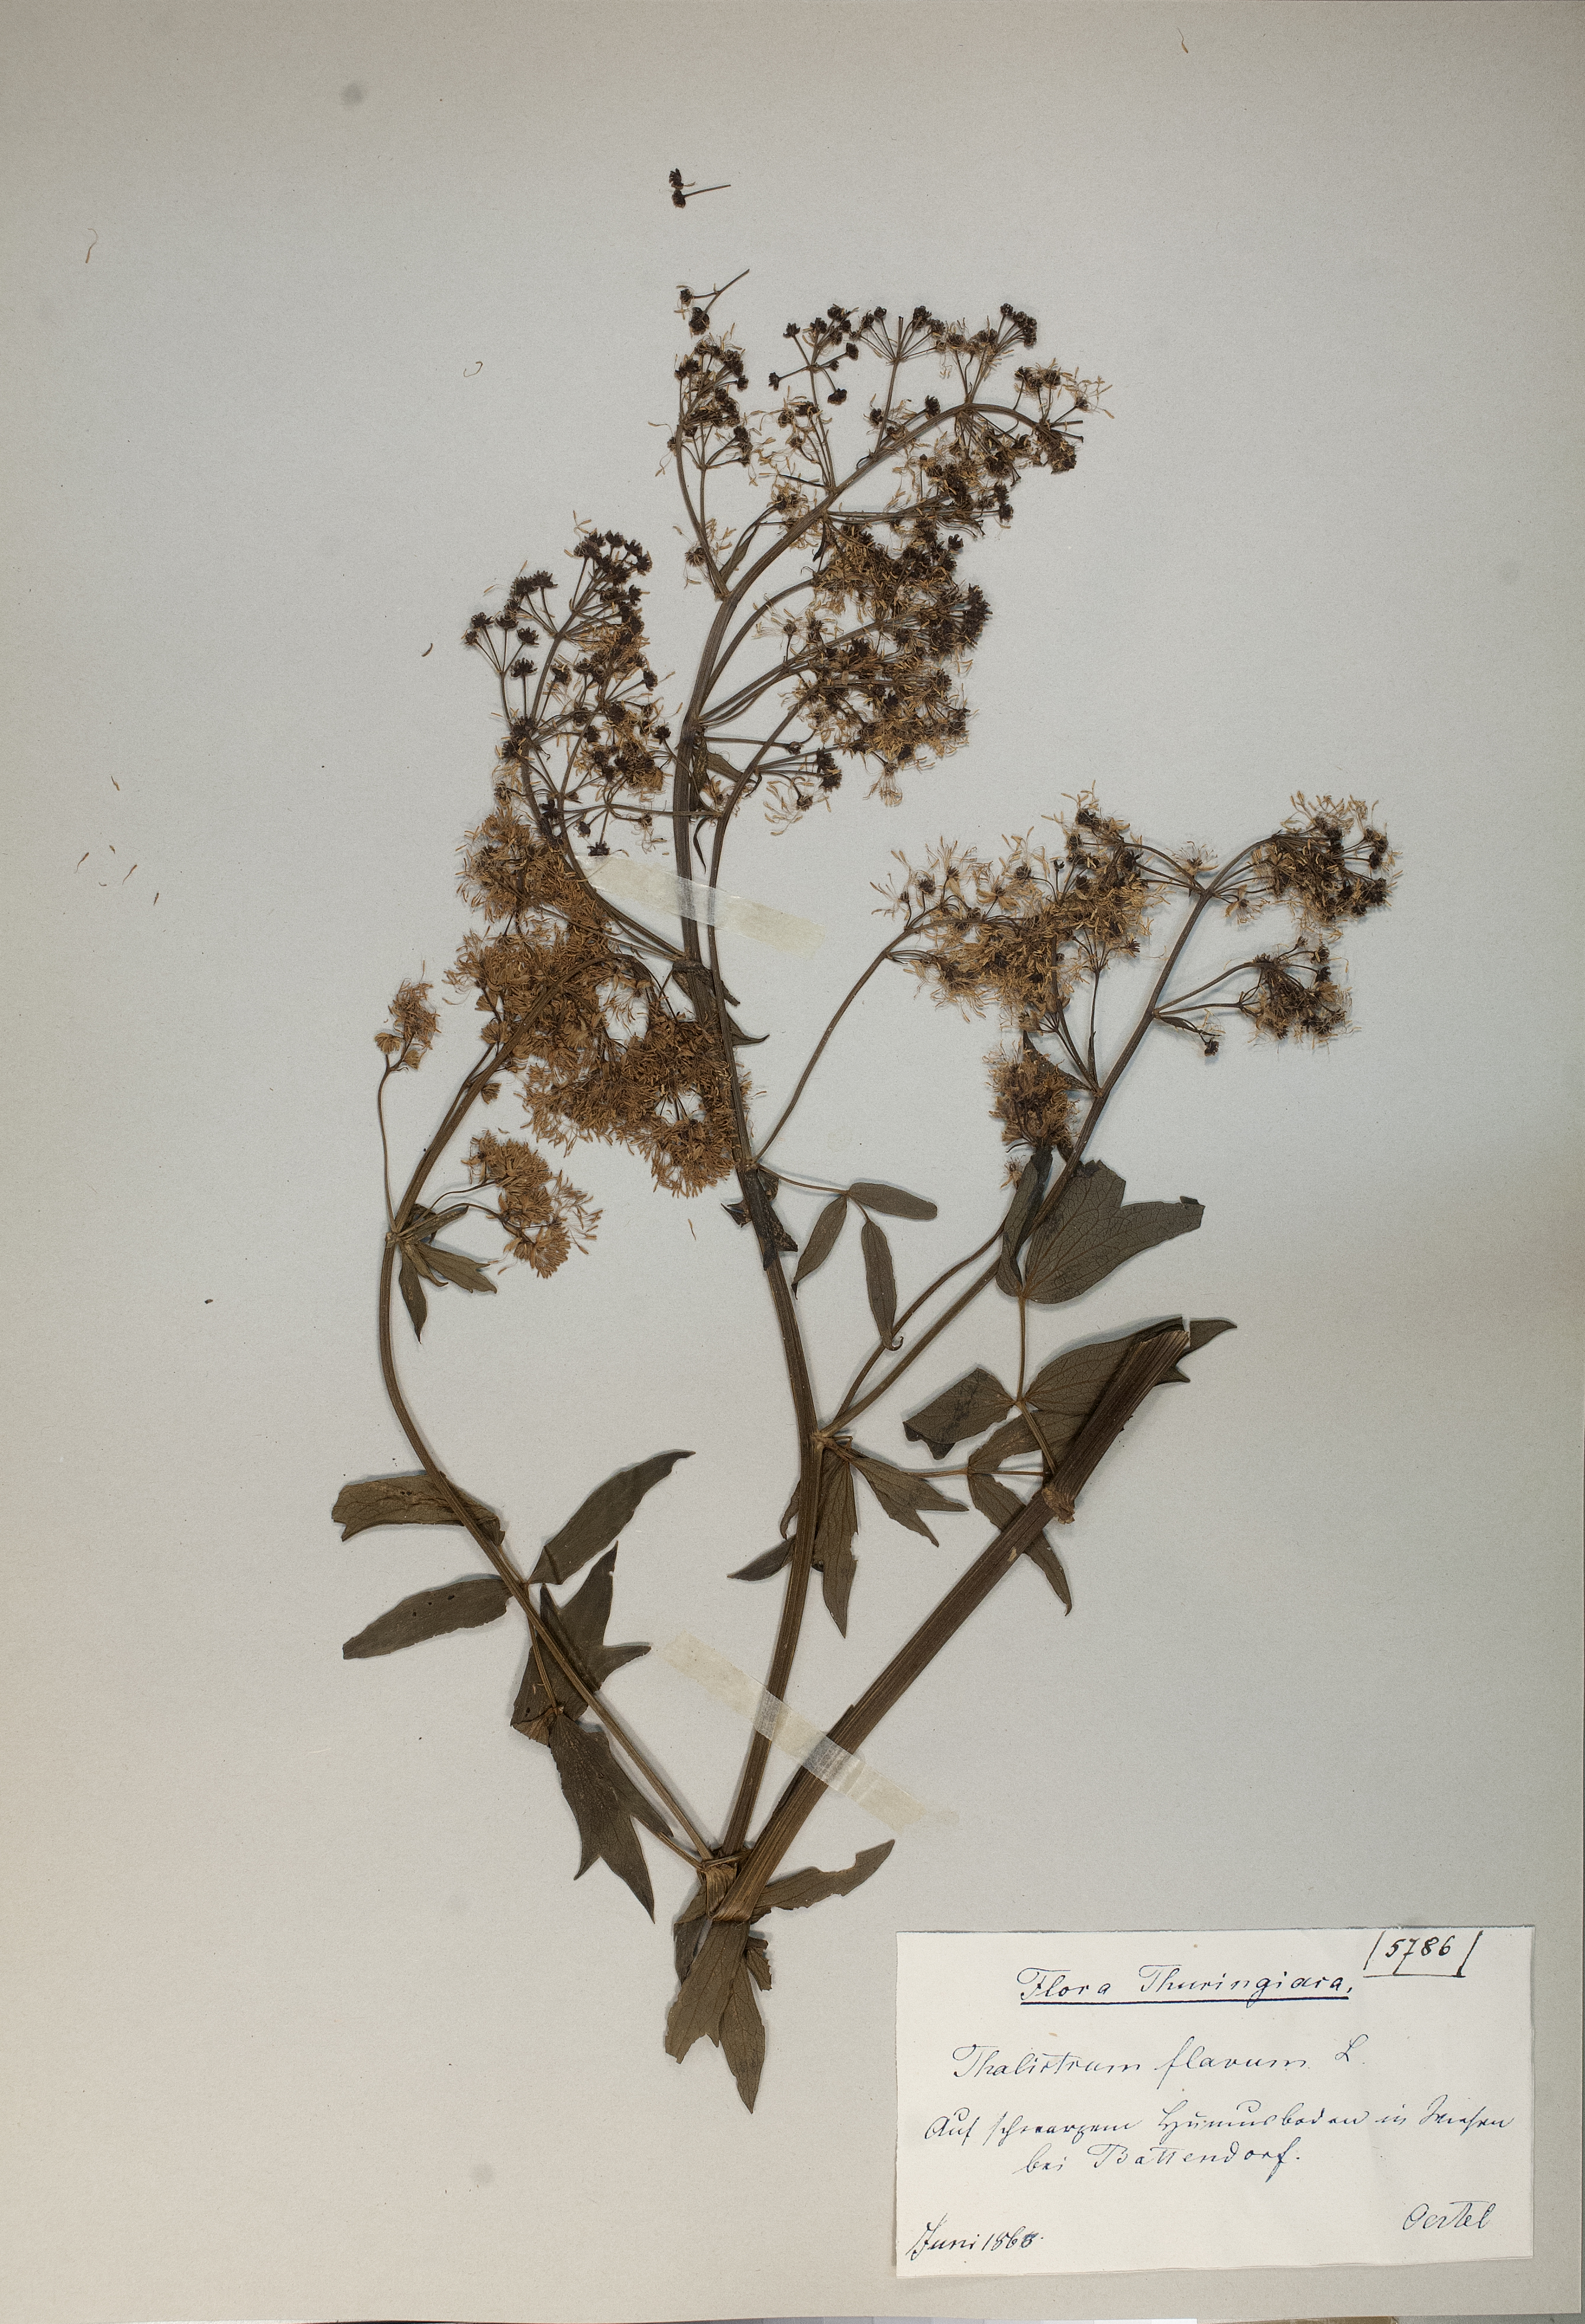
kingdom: Plantae
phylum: Tracheophyta
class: Magnoliopsida
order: Ranunculales
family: Ranunculaceae
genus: Thalictrum
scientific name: Thalictrum flavum
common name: Common meadow-rue
